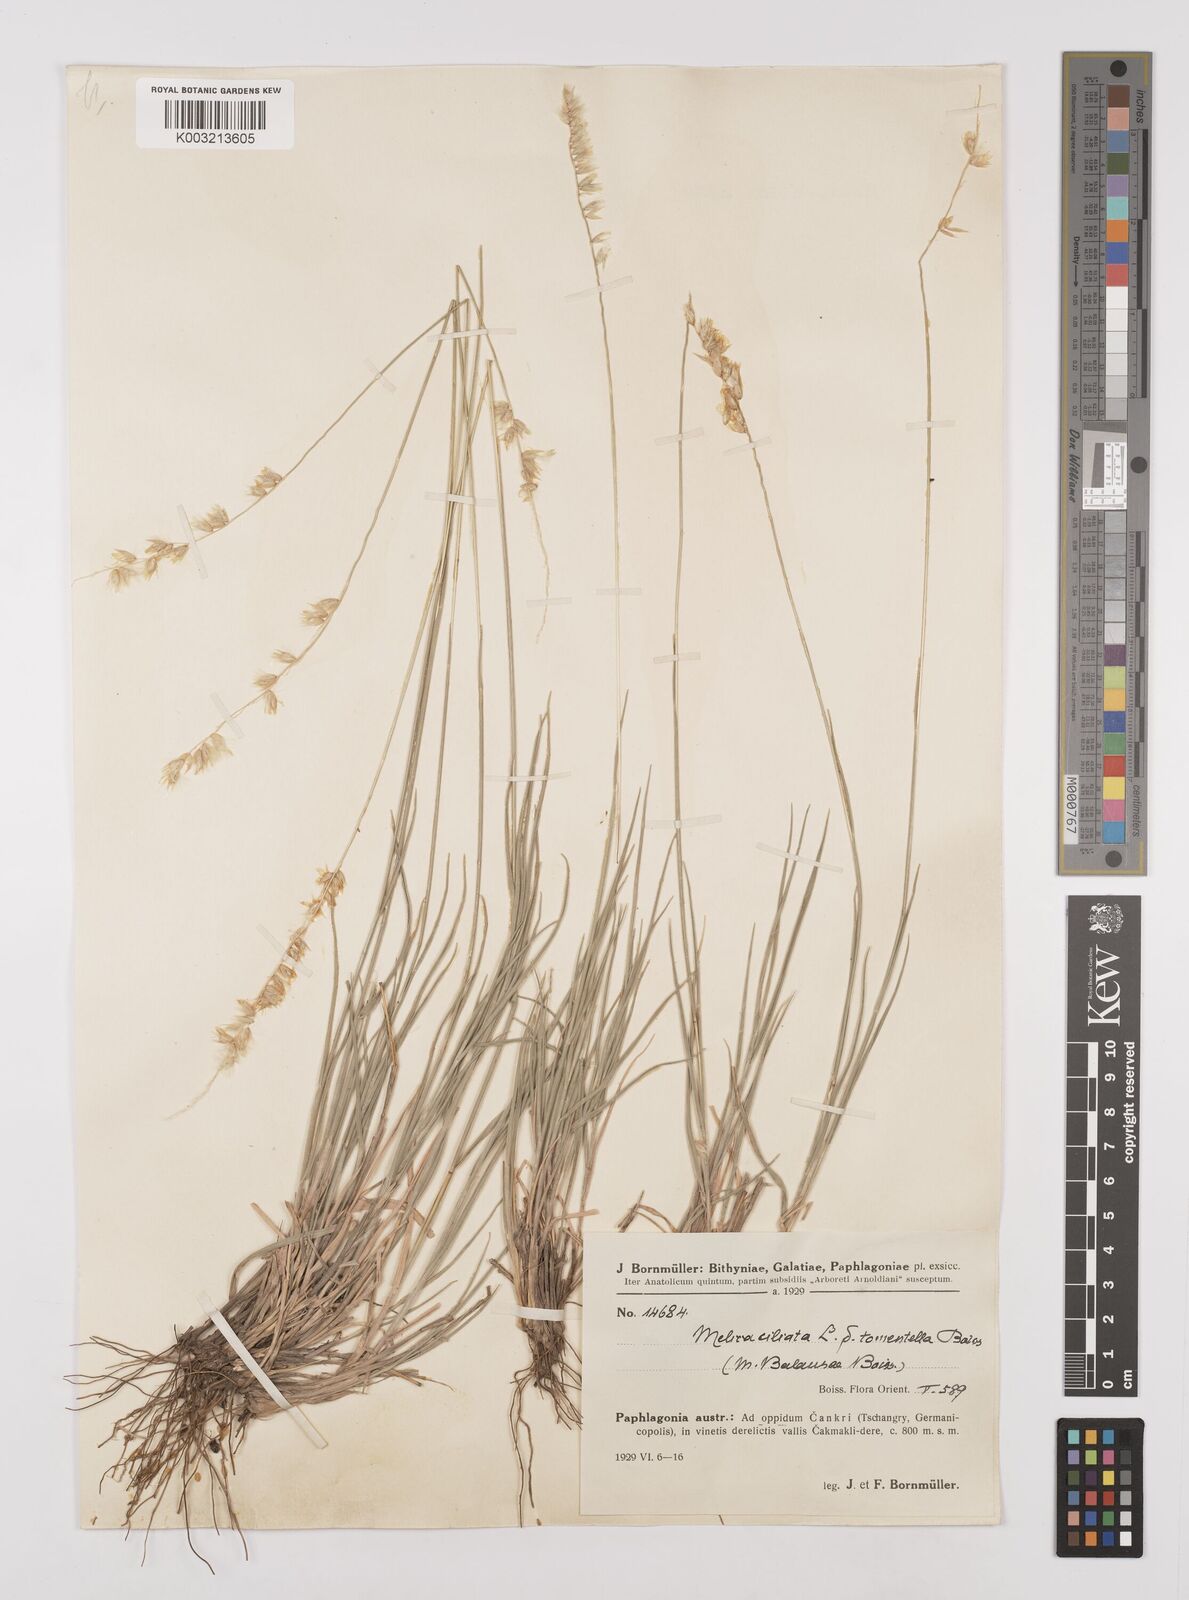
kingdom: Plantae
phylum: Tracheophyta
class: Liliopsida
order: Poales
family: Poaceae
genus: Melica
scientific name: Melica ciliata
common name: Hairy melicgrass
